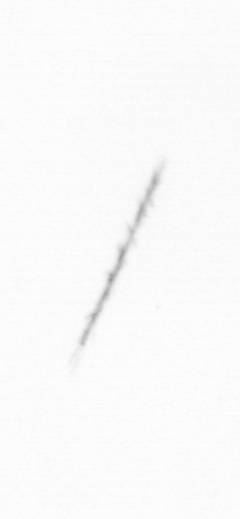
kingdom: Chromista
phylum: Ochrophyta
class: Bacillariophyceae
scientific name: Bacillariophyceae
